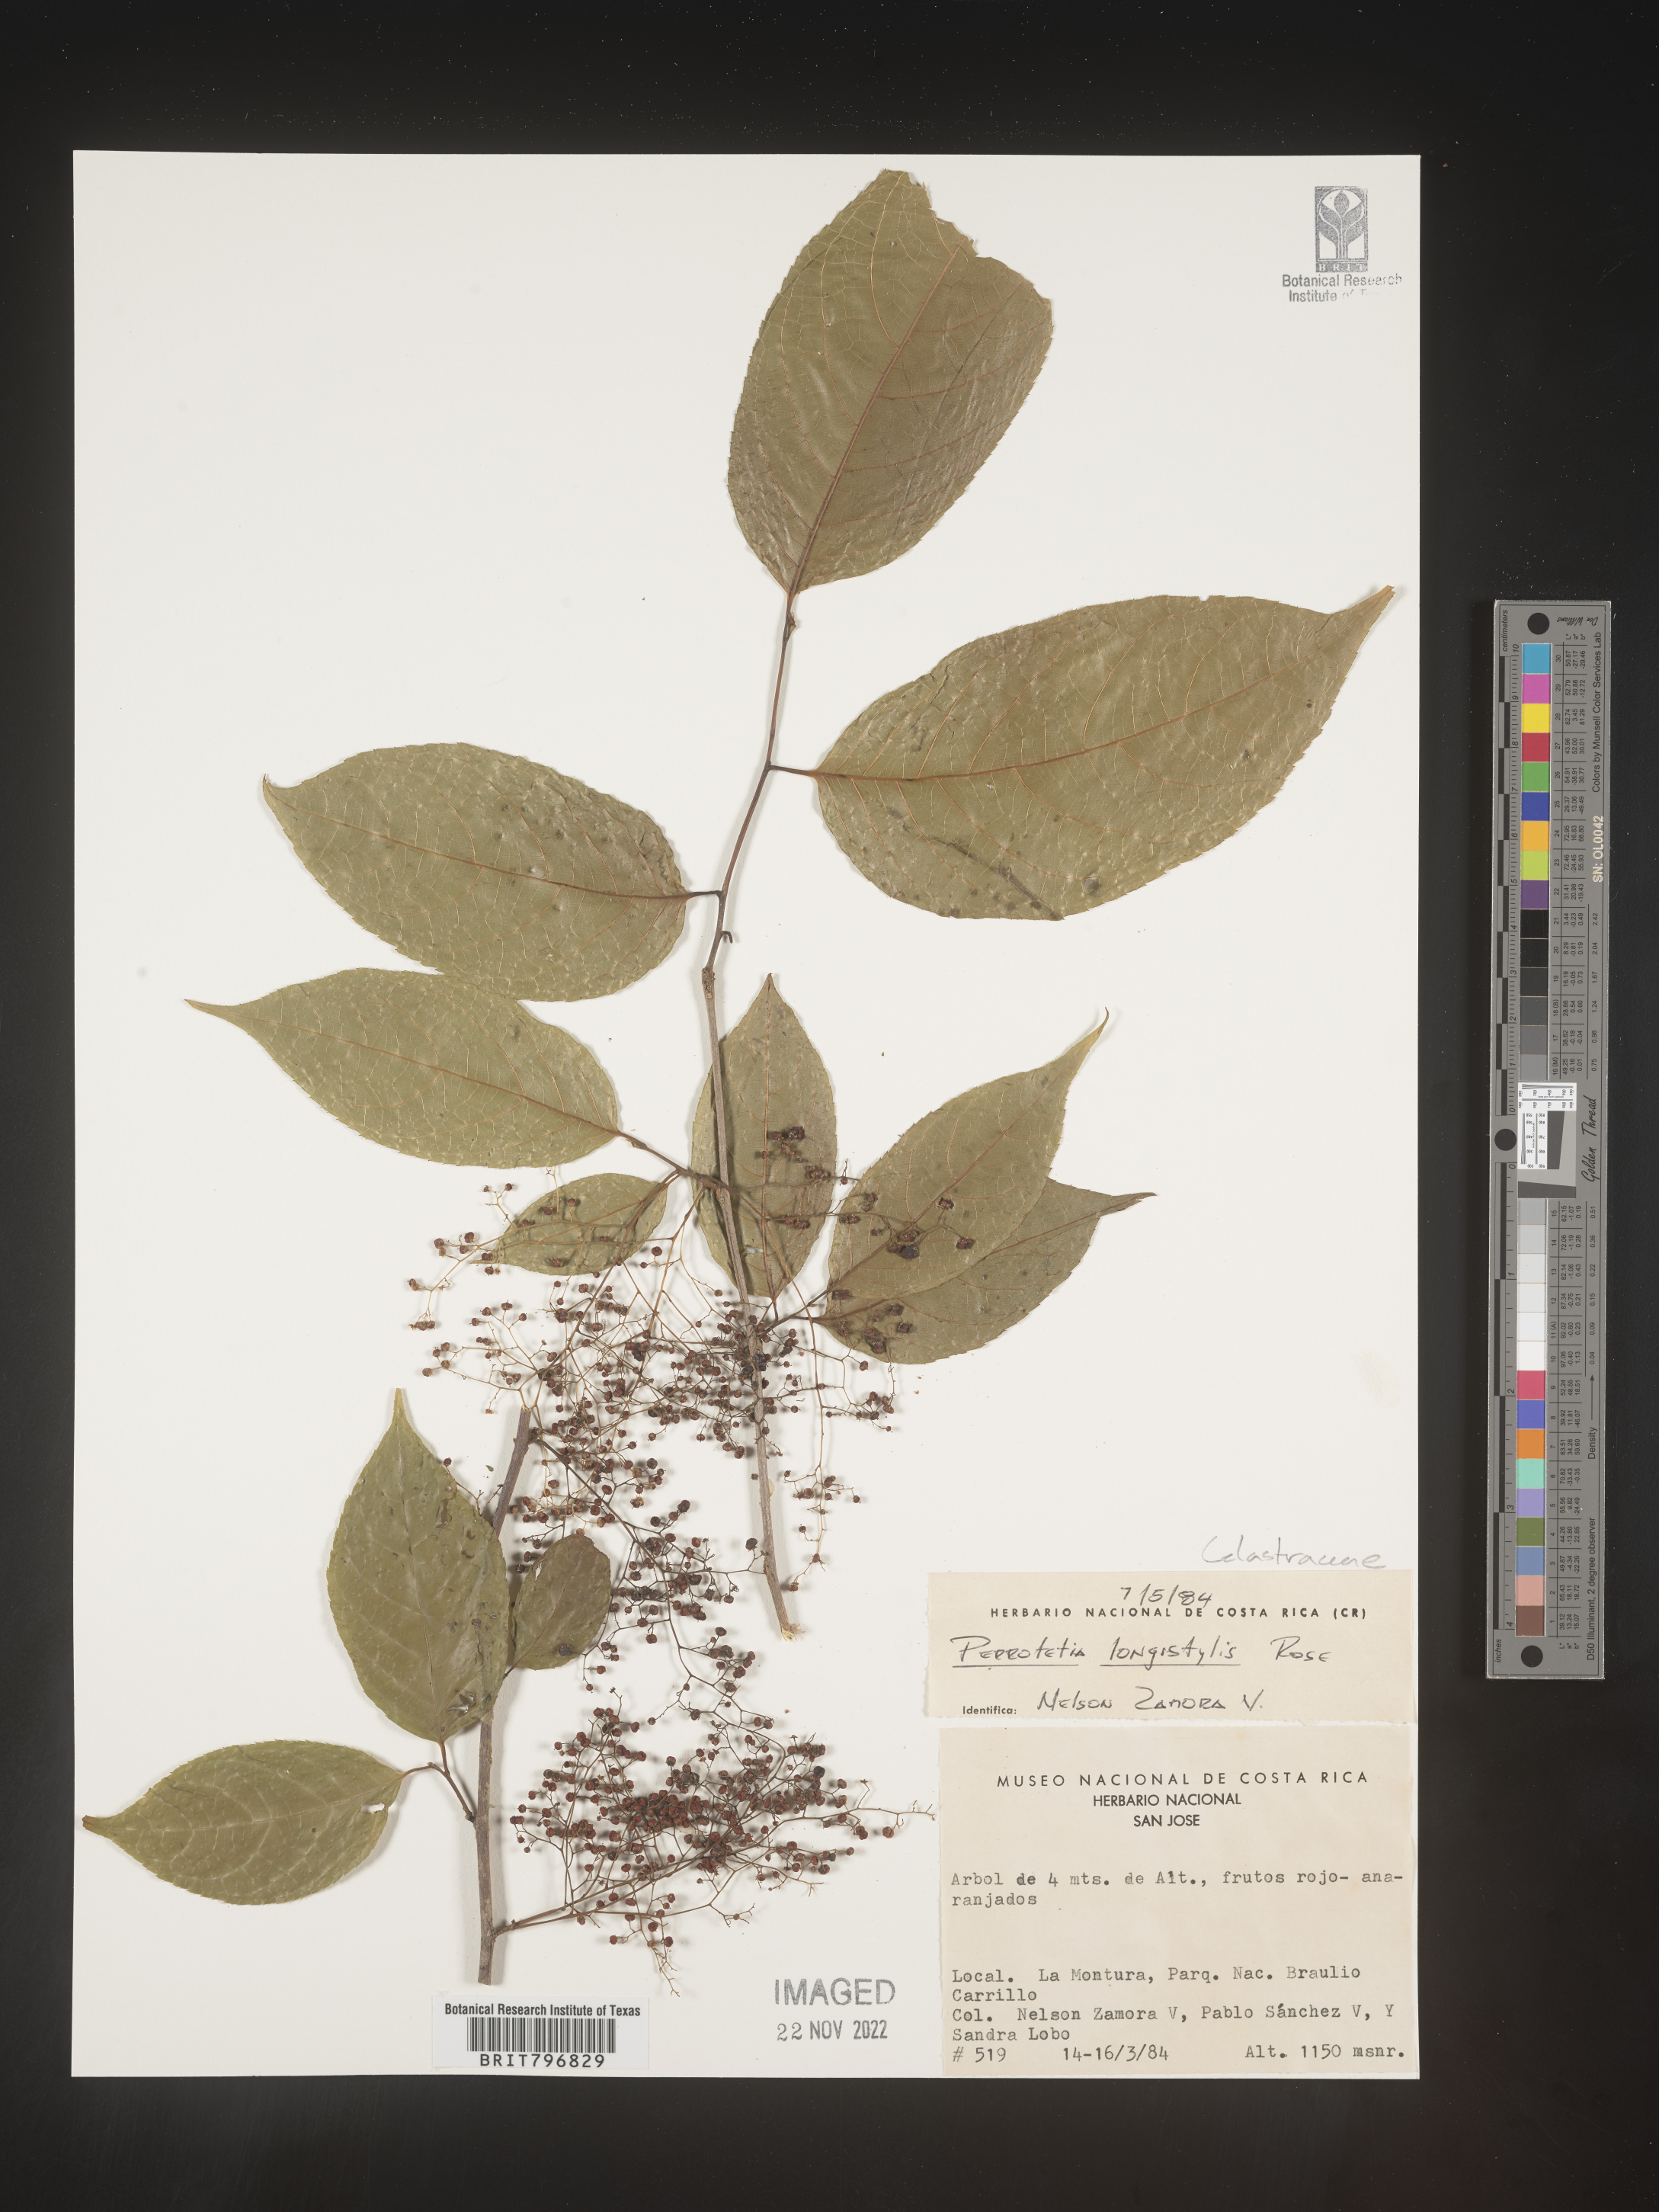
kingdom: Plantae
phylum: Tracheophyta
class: Magnoliopsida
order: Huerteales
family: Dipentodontaceae
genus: Perrottetia
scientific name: Perrottetia
